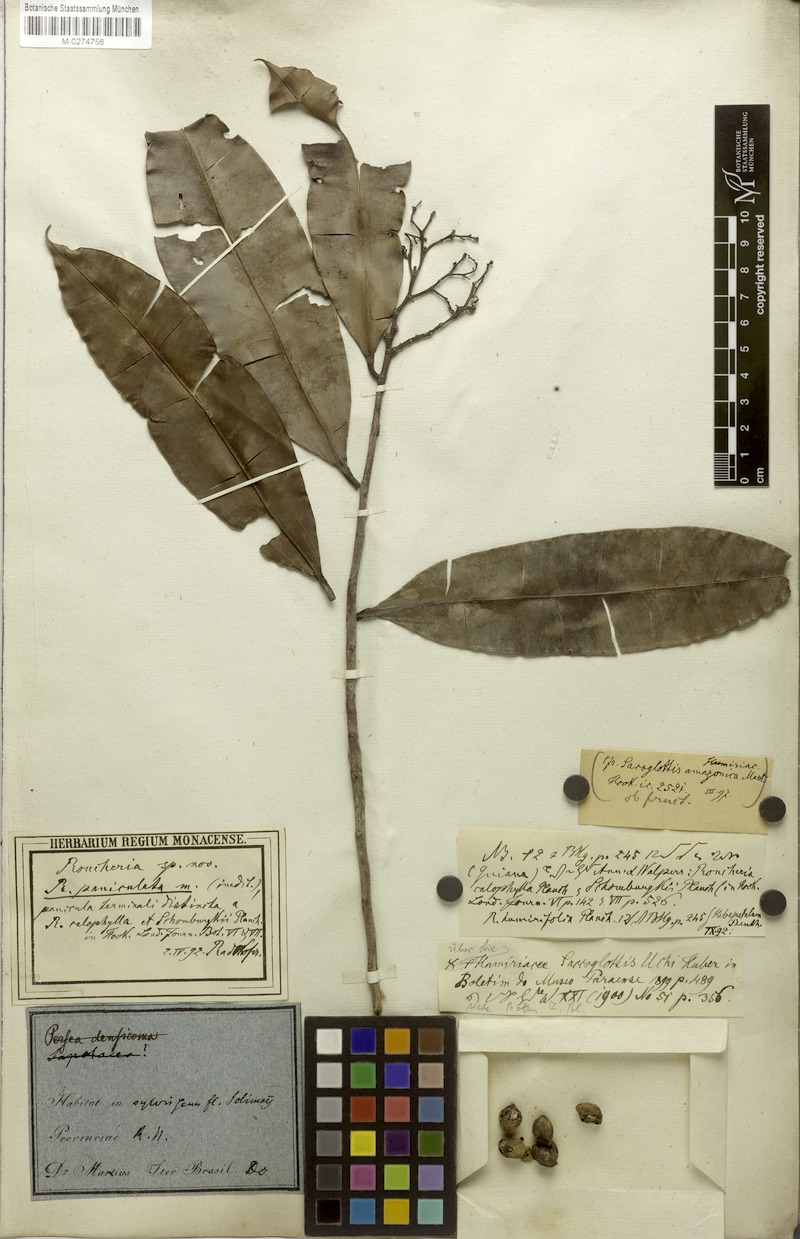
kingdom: Plantae
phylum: Tracheophyta
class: Magnoliopsida
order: Malpighiales
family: Linaceae
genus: Roucheria
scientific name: Roucheria
